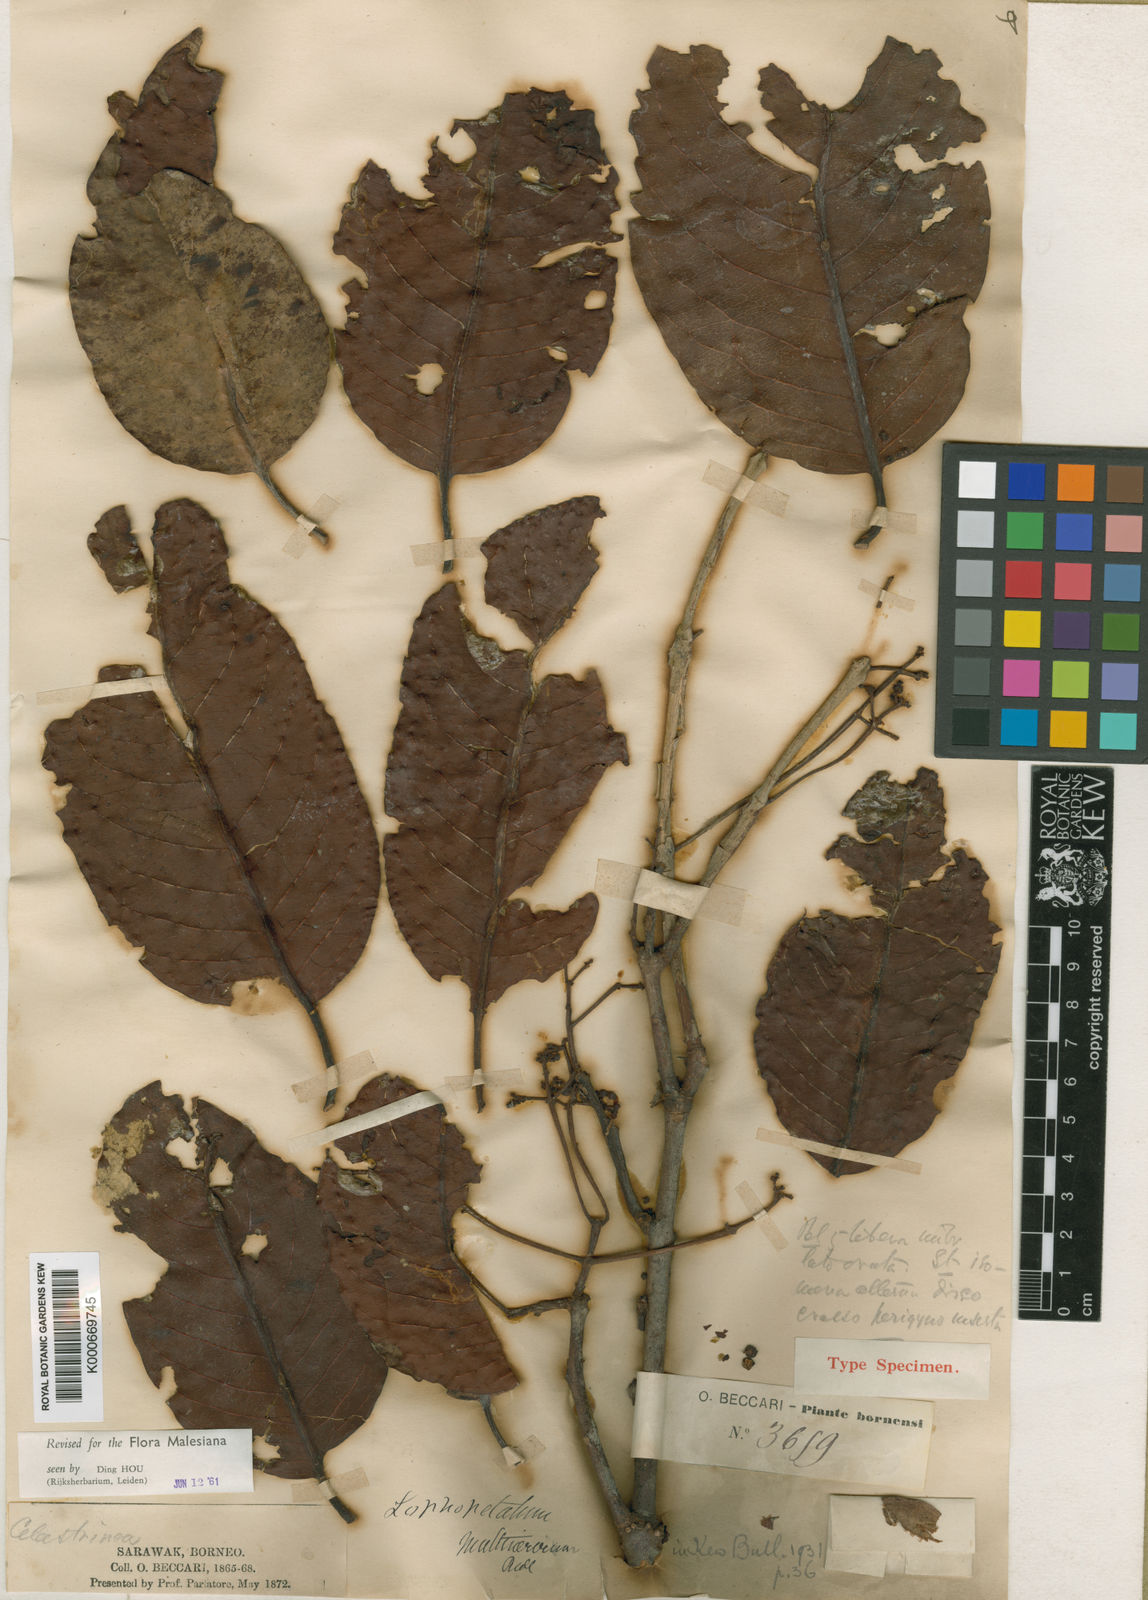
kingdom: Plantae
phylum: Tracheophyta
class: Magnoliopsida
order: Celastrales
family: Celastraceae
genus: Lophopetalum
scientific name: Lophopetalum multinervium
